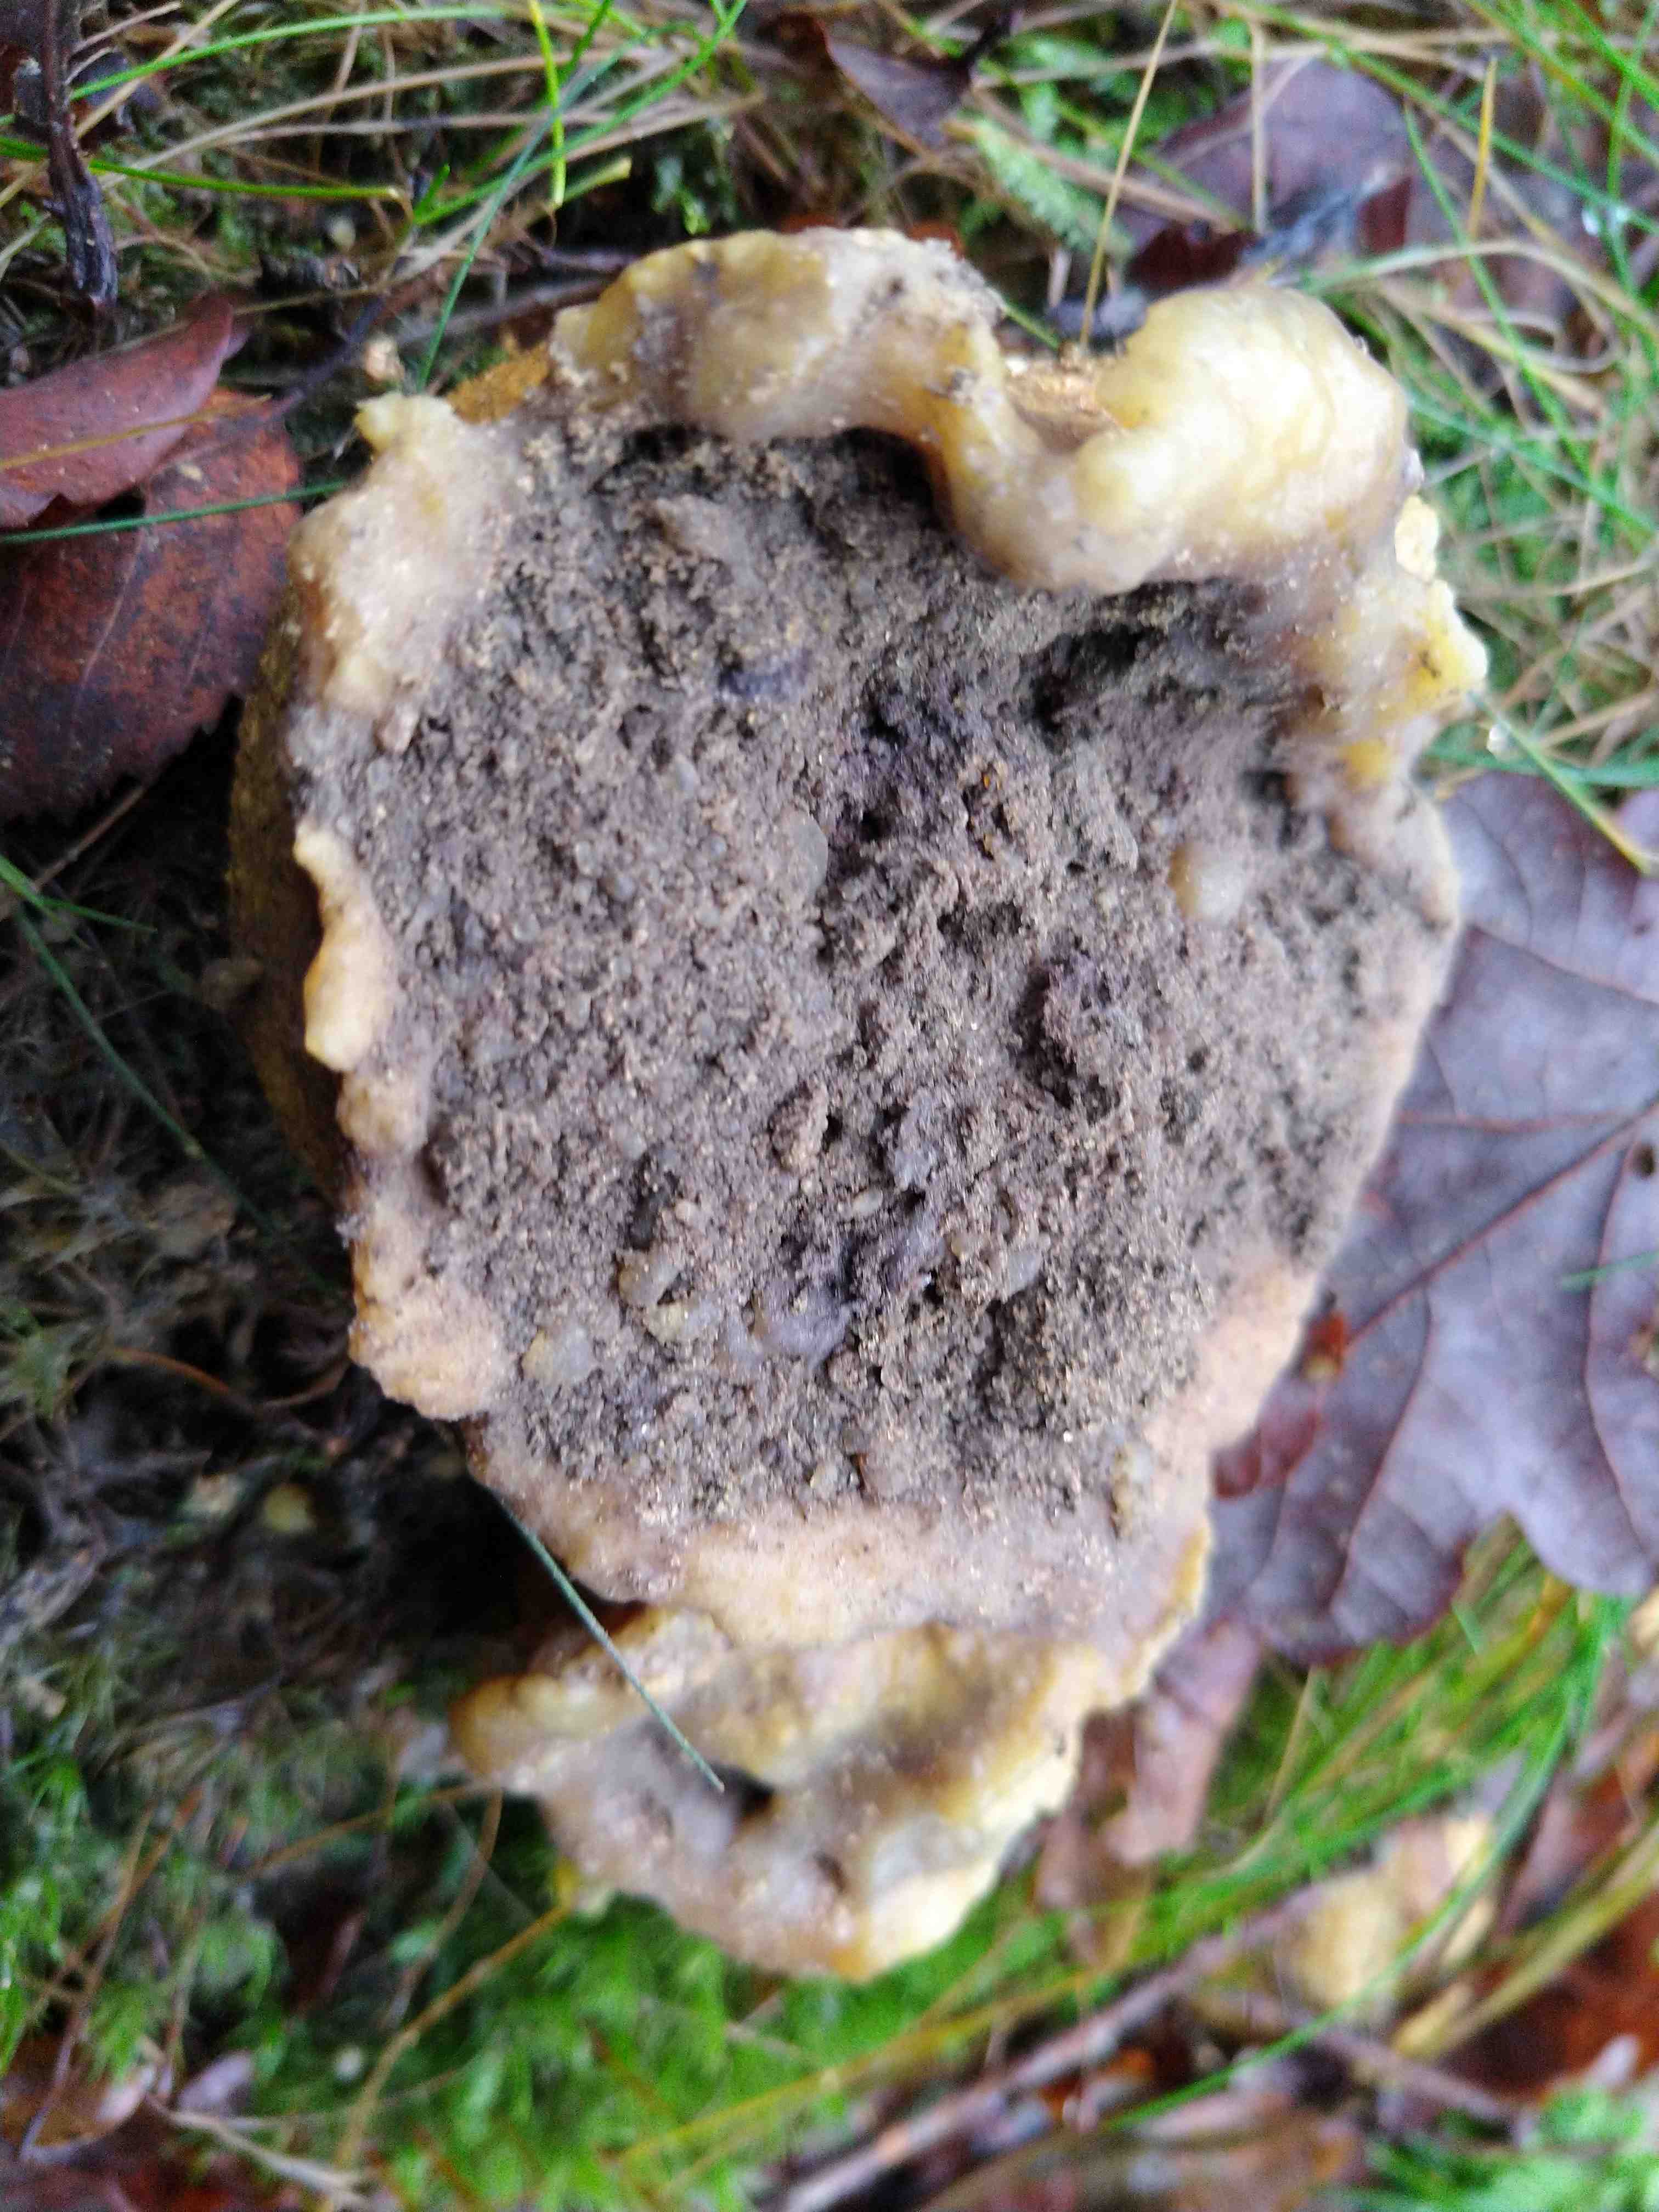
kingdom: Fungi
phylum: Basidiomycota
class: Agaricomycetes
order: Boletales
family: Sclerodermataceae
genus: Scleroderma
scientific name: Scleroderma citrinum
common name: almindelig bruskbold
